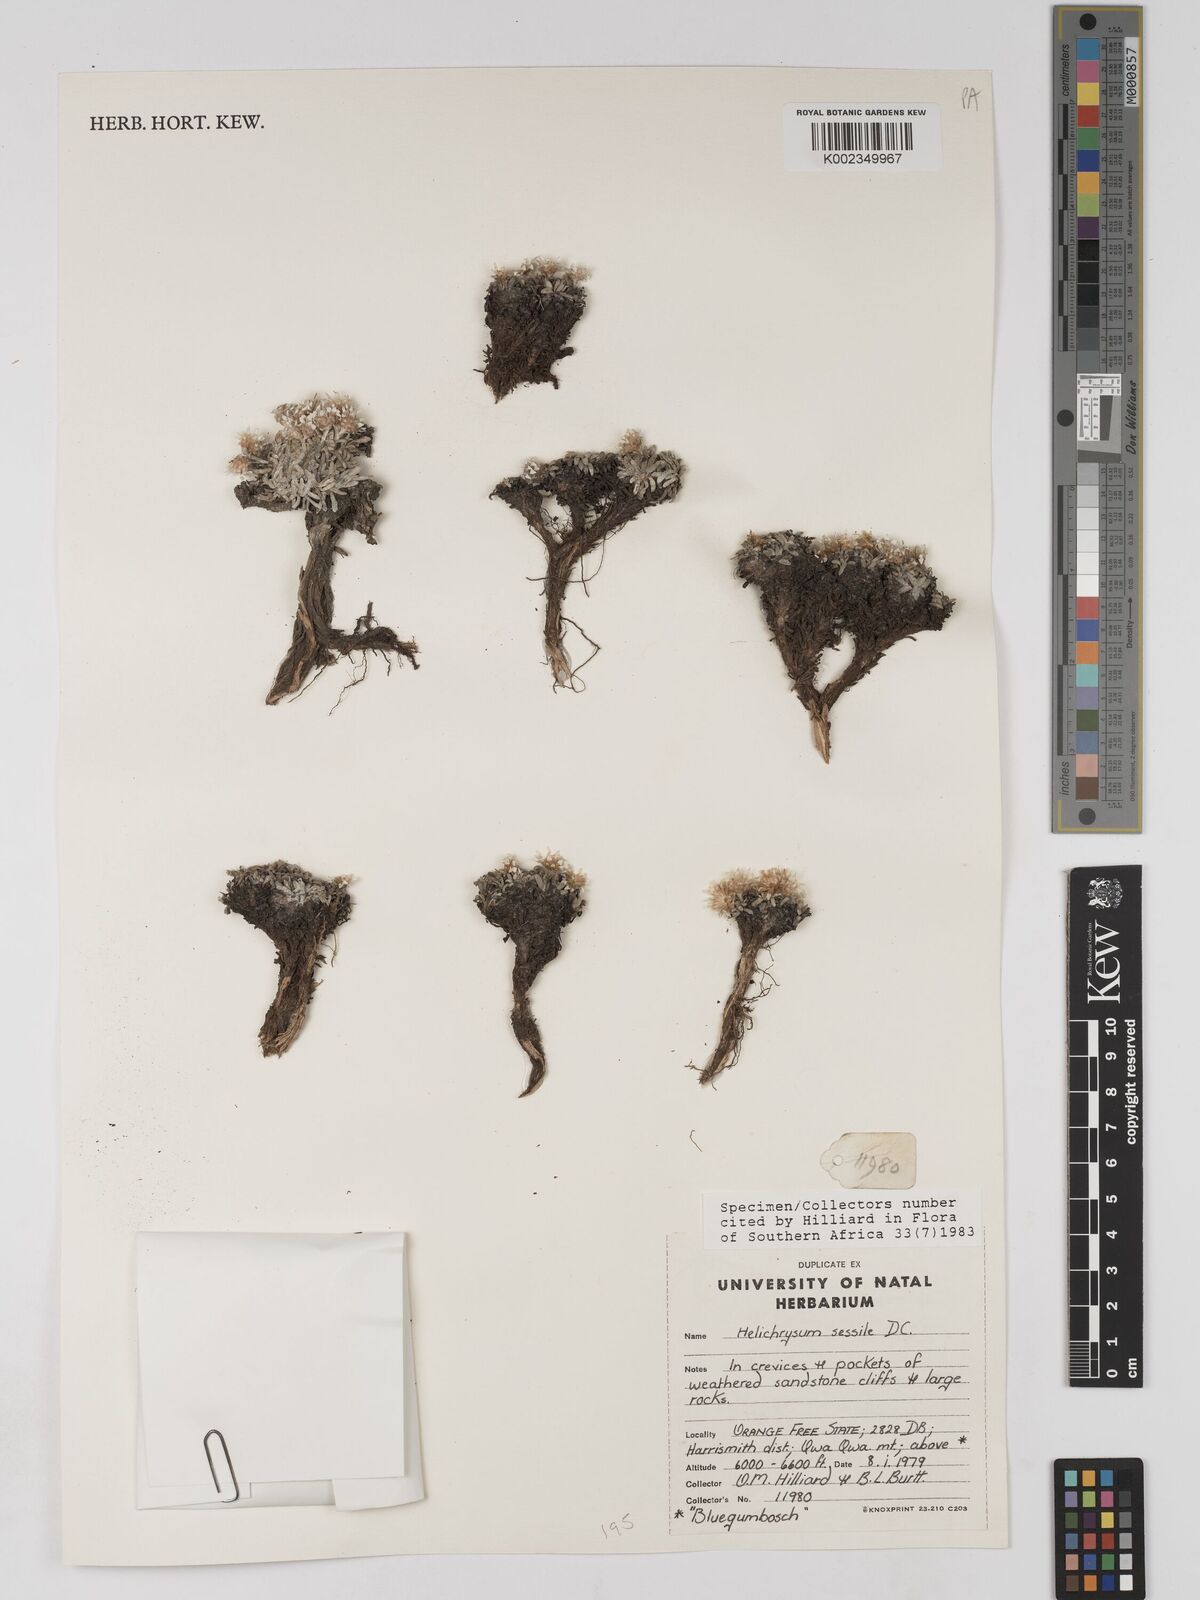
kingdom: Plantae
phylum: Tracheophyta
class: Magnoliopsida
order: Asterales
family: Asteraceae
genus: Helichrysum
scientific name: Helichrysum sessile
